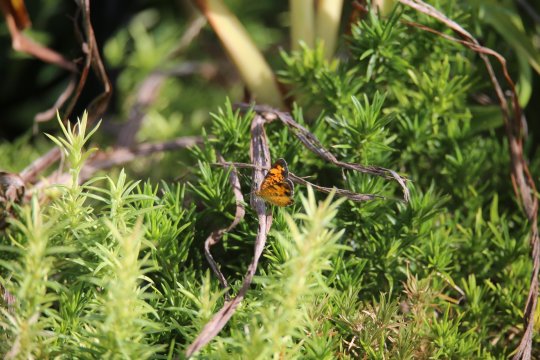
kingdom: Animalia
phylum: Arthropoda
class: Insecta
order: Lepidoptera
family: Nymphalidae
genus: Phyciodes
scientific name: Phyciodes tharos
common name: Pearl Crescent
